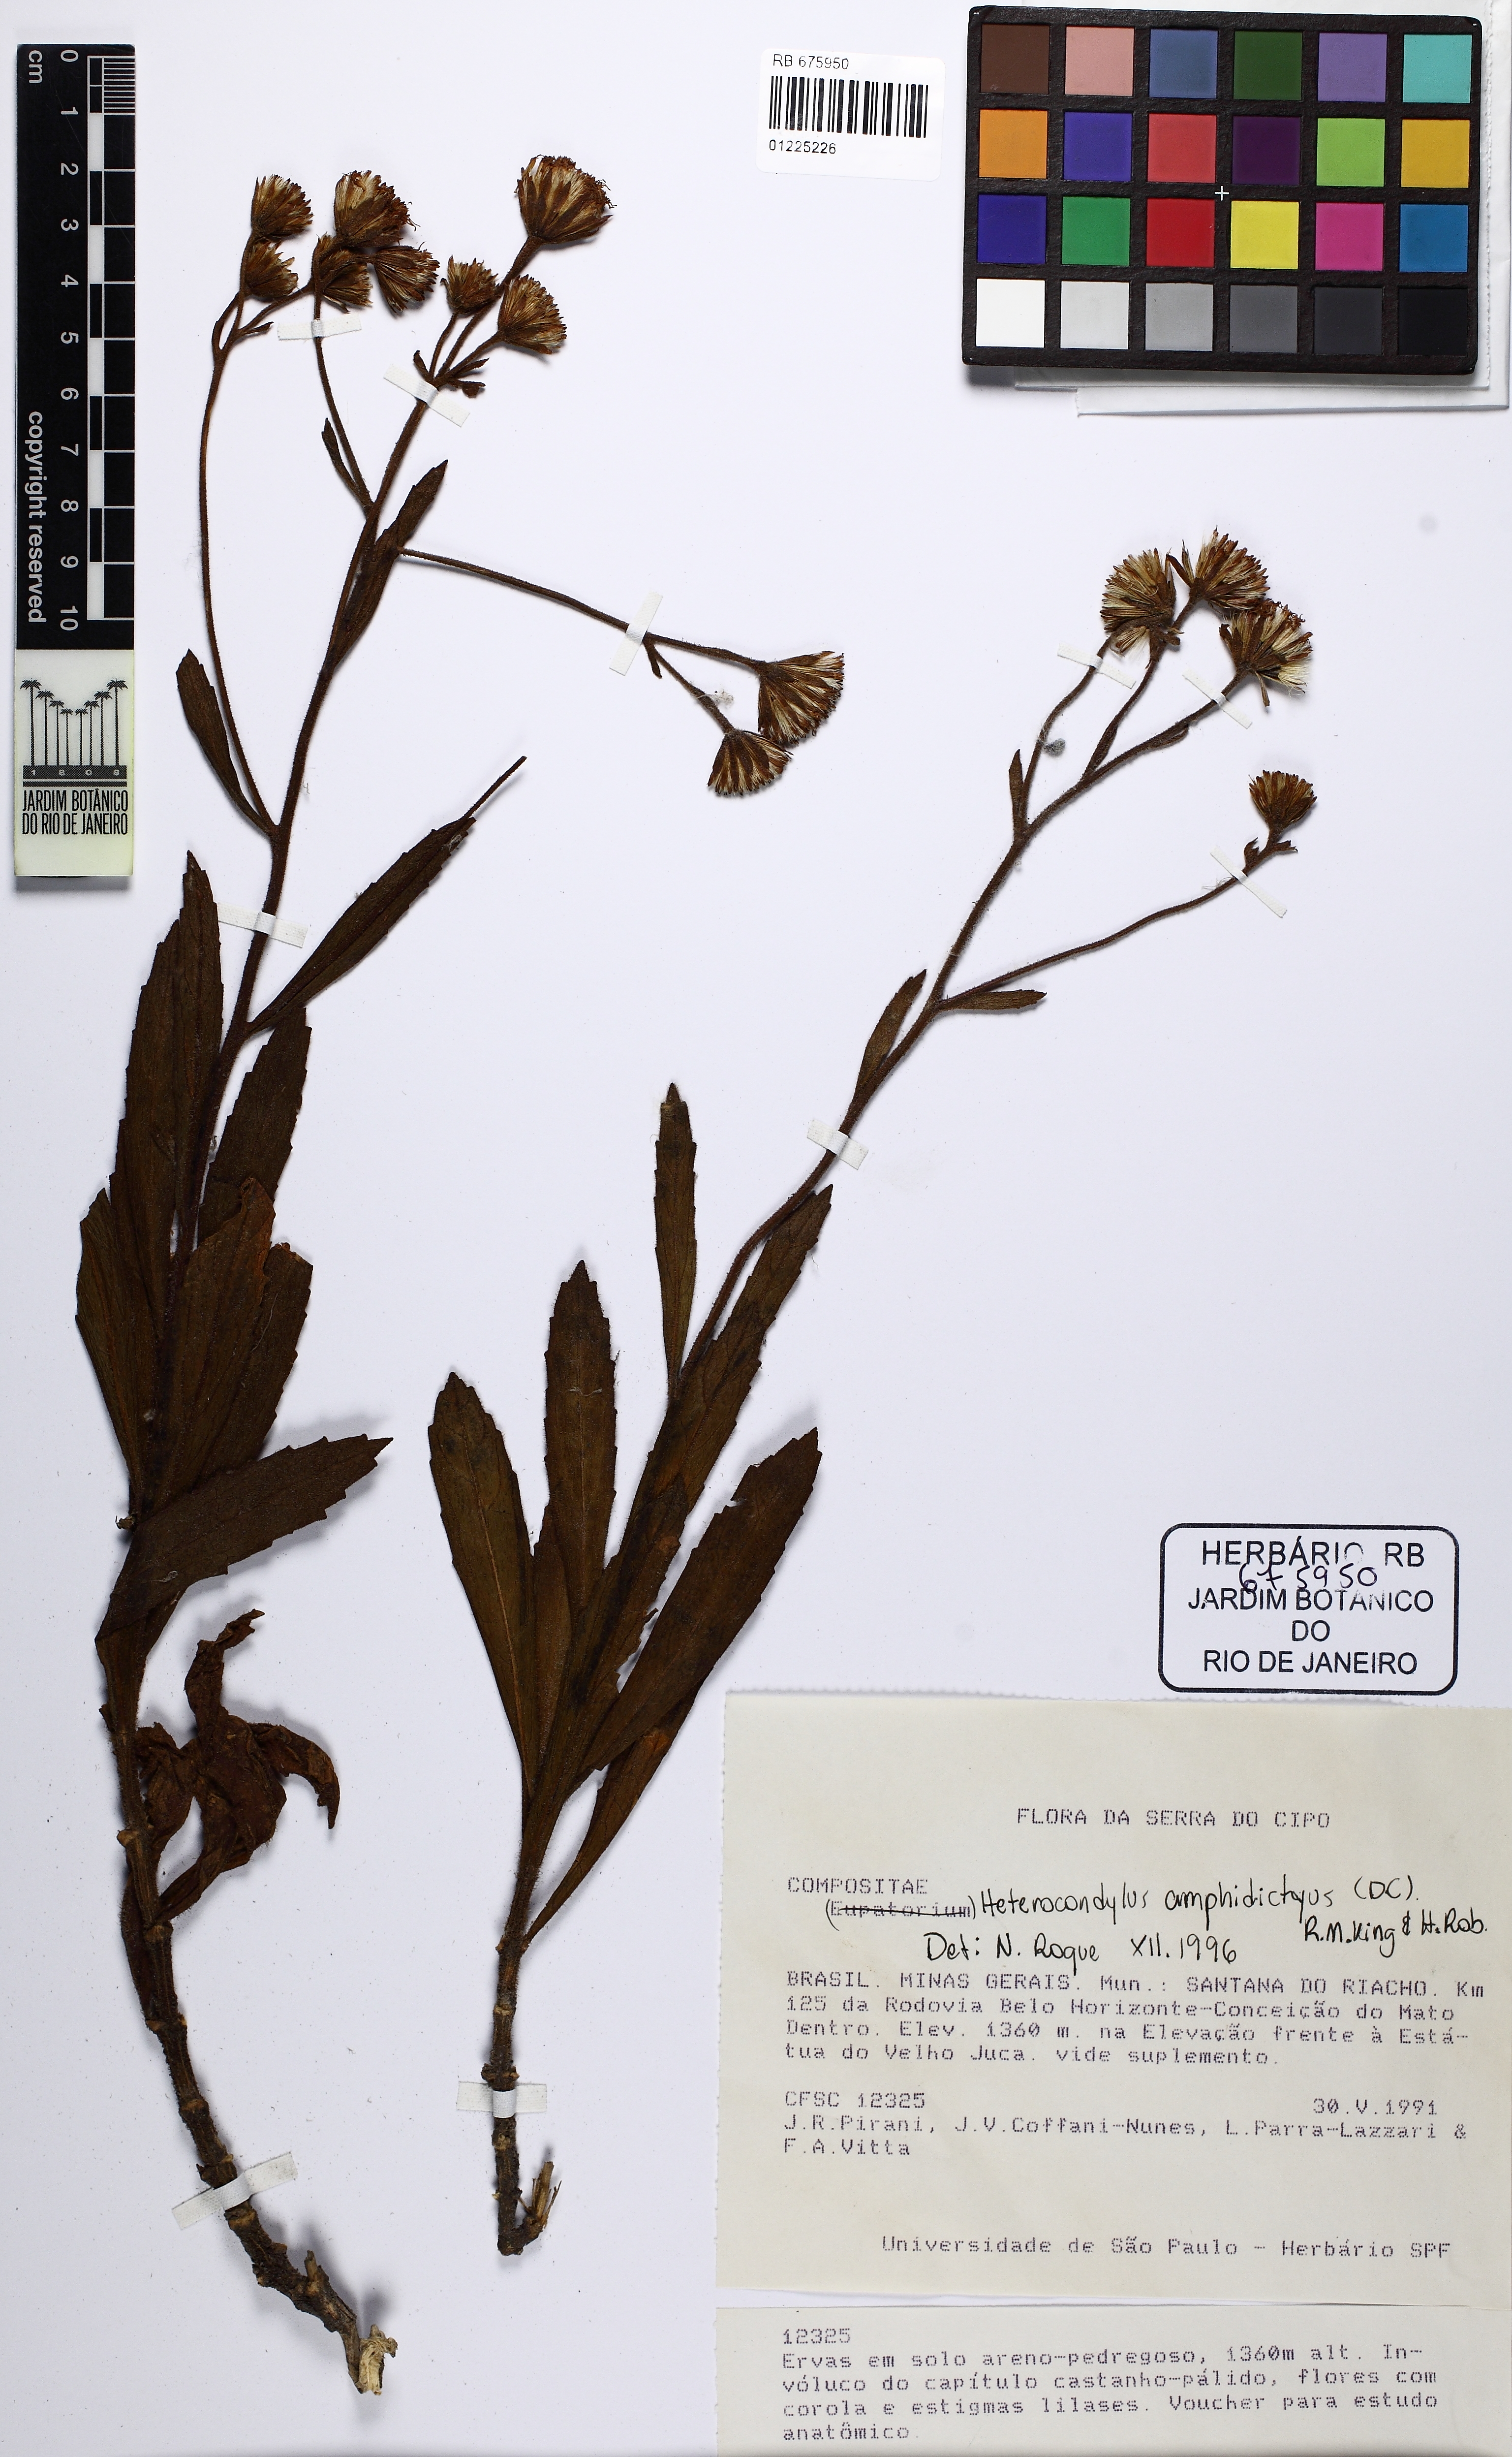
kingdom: Plantae
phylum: Tracheophyta
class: Magnoliopsida
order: Asterales
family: Asteraceae
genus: Heterocondylus
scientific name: Heterocondylus amphidictyus
